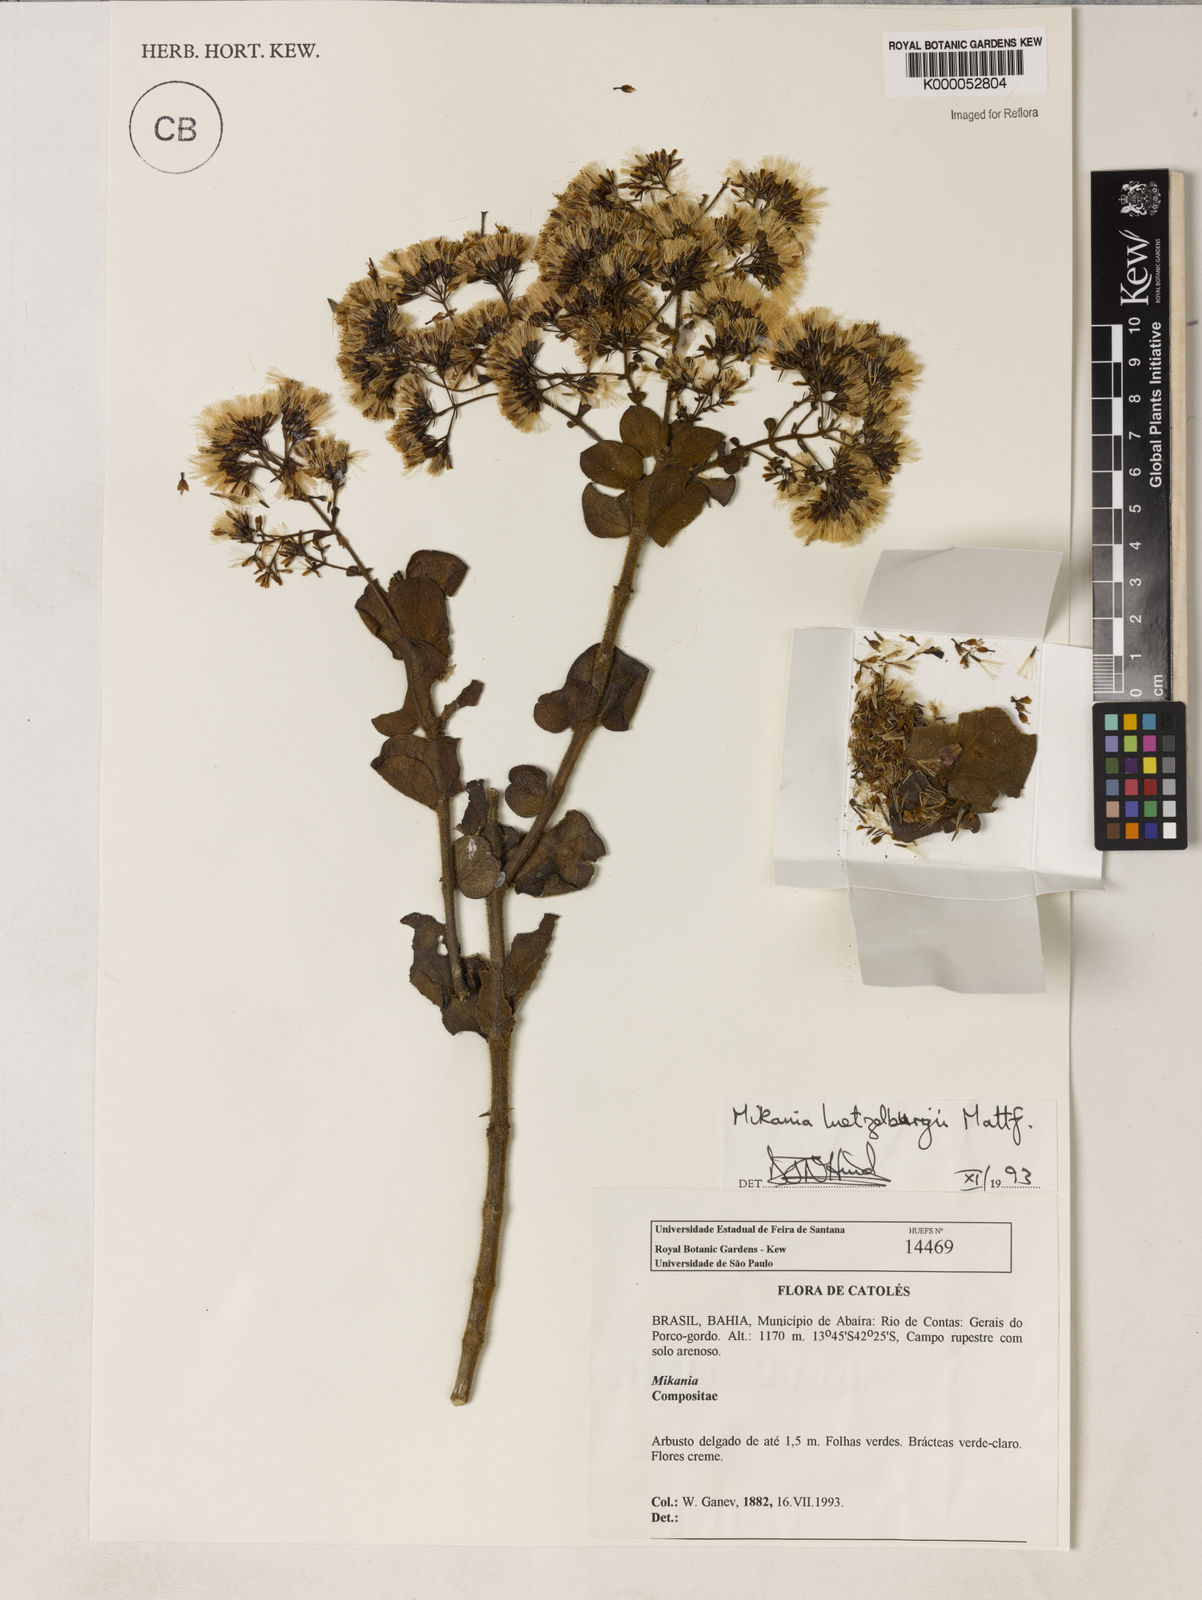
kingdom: Plantae
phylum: Tracheophyta
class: Magnoliopsida
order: Asterales
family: Asteraceae
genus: Mikania
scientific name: Mikania luetzelburgii
